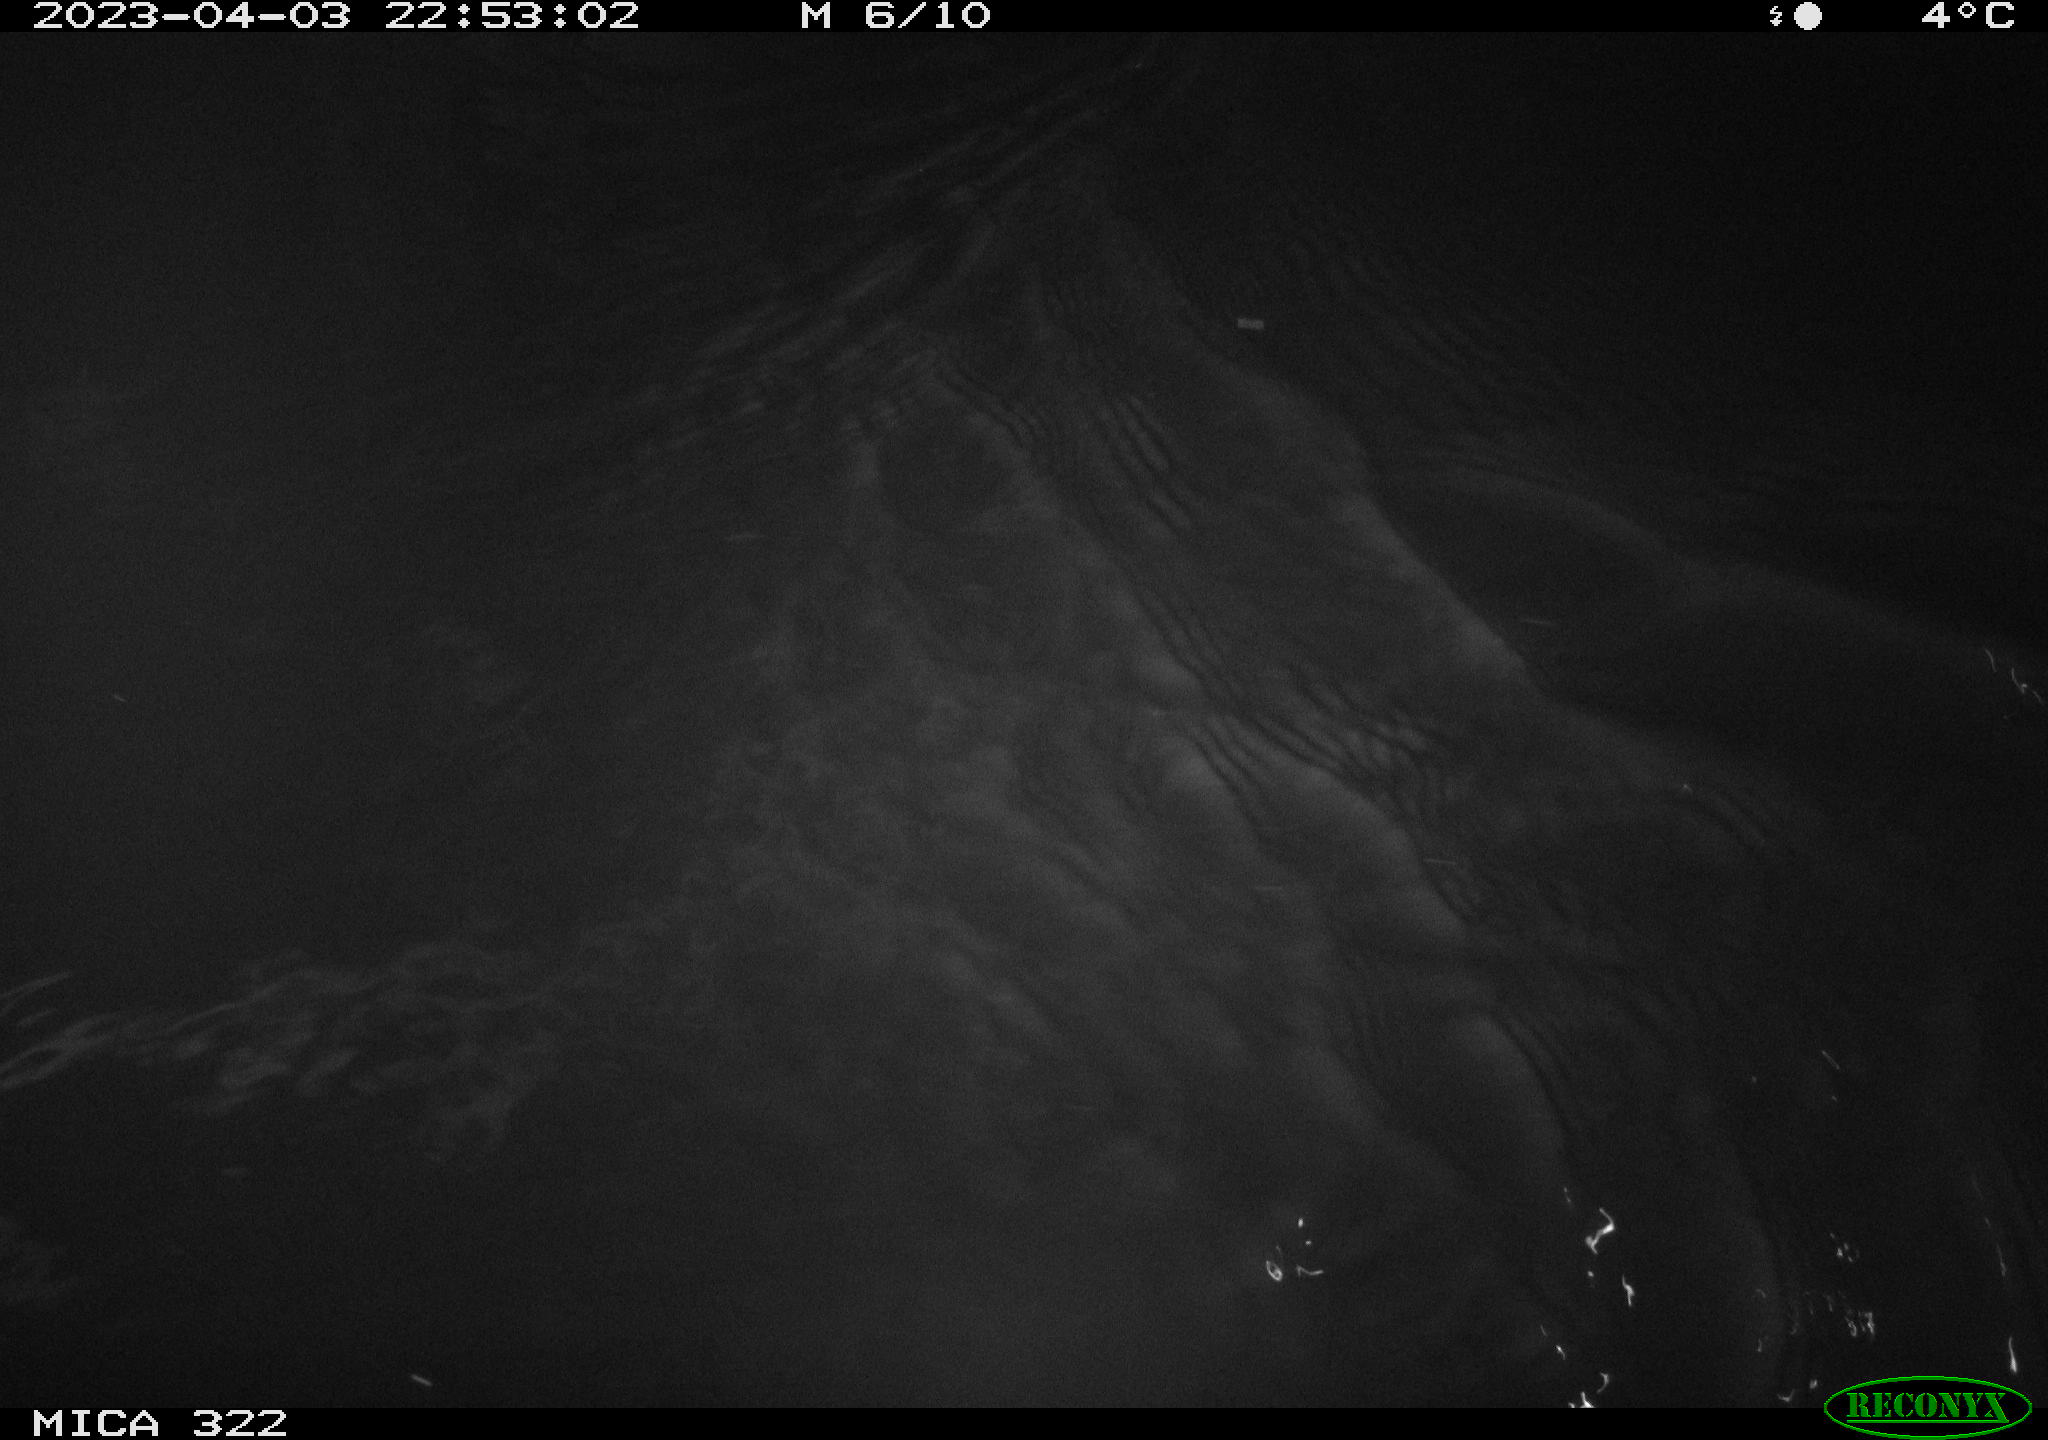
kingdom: Animalia
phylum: Chordata
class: Mammalia
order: Rodentia
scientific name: Rodentia
